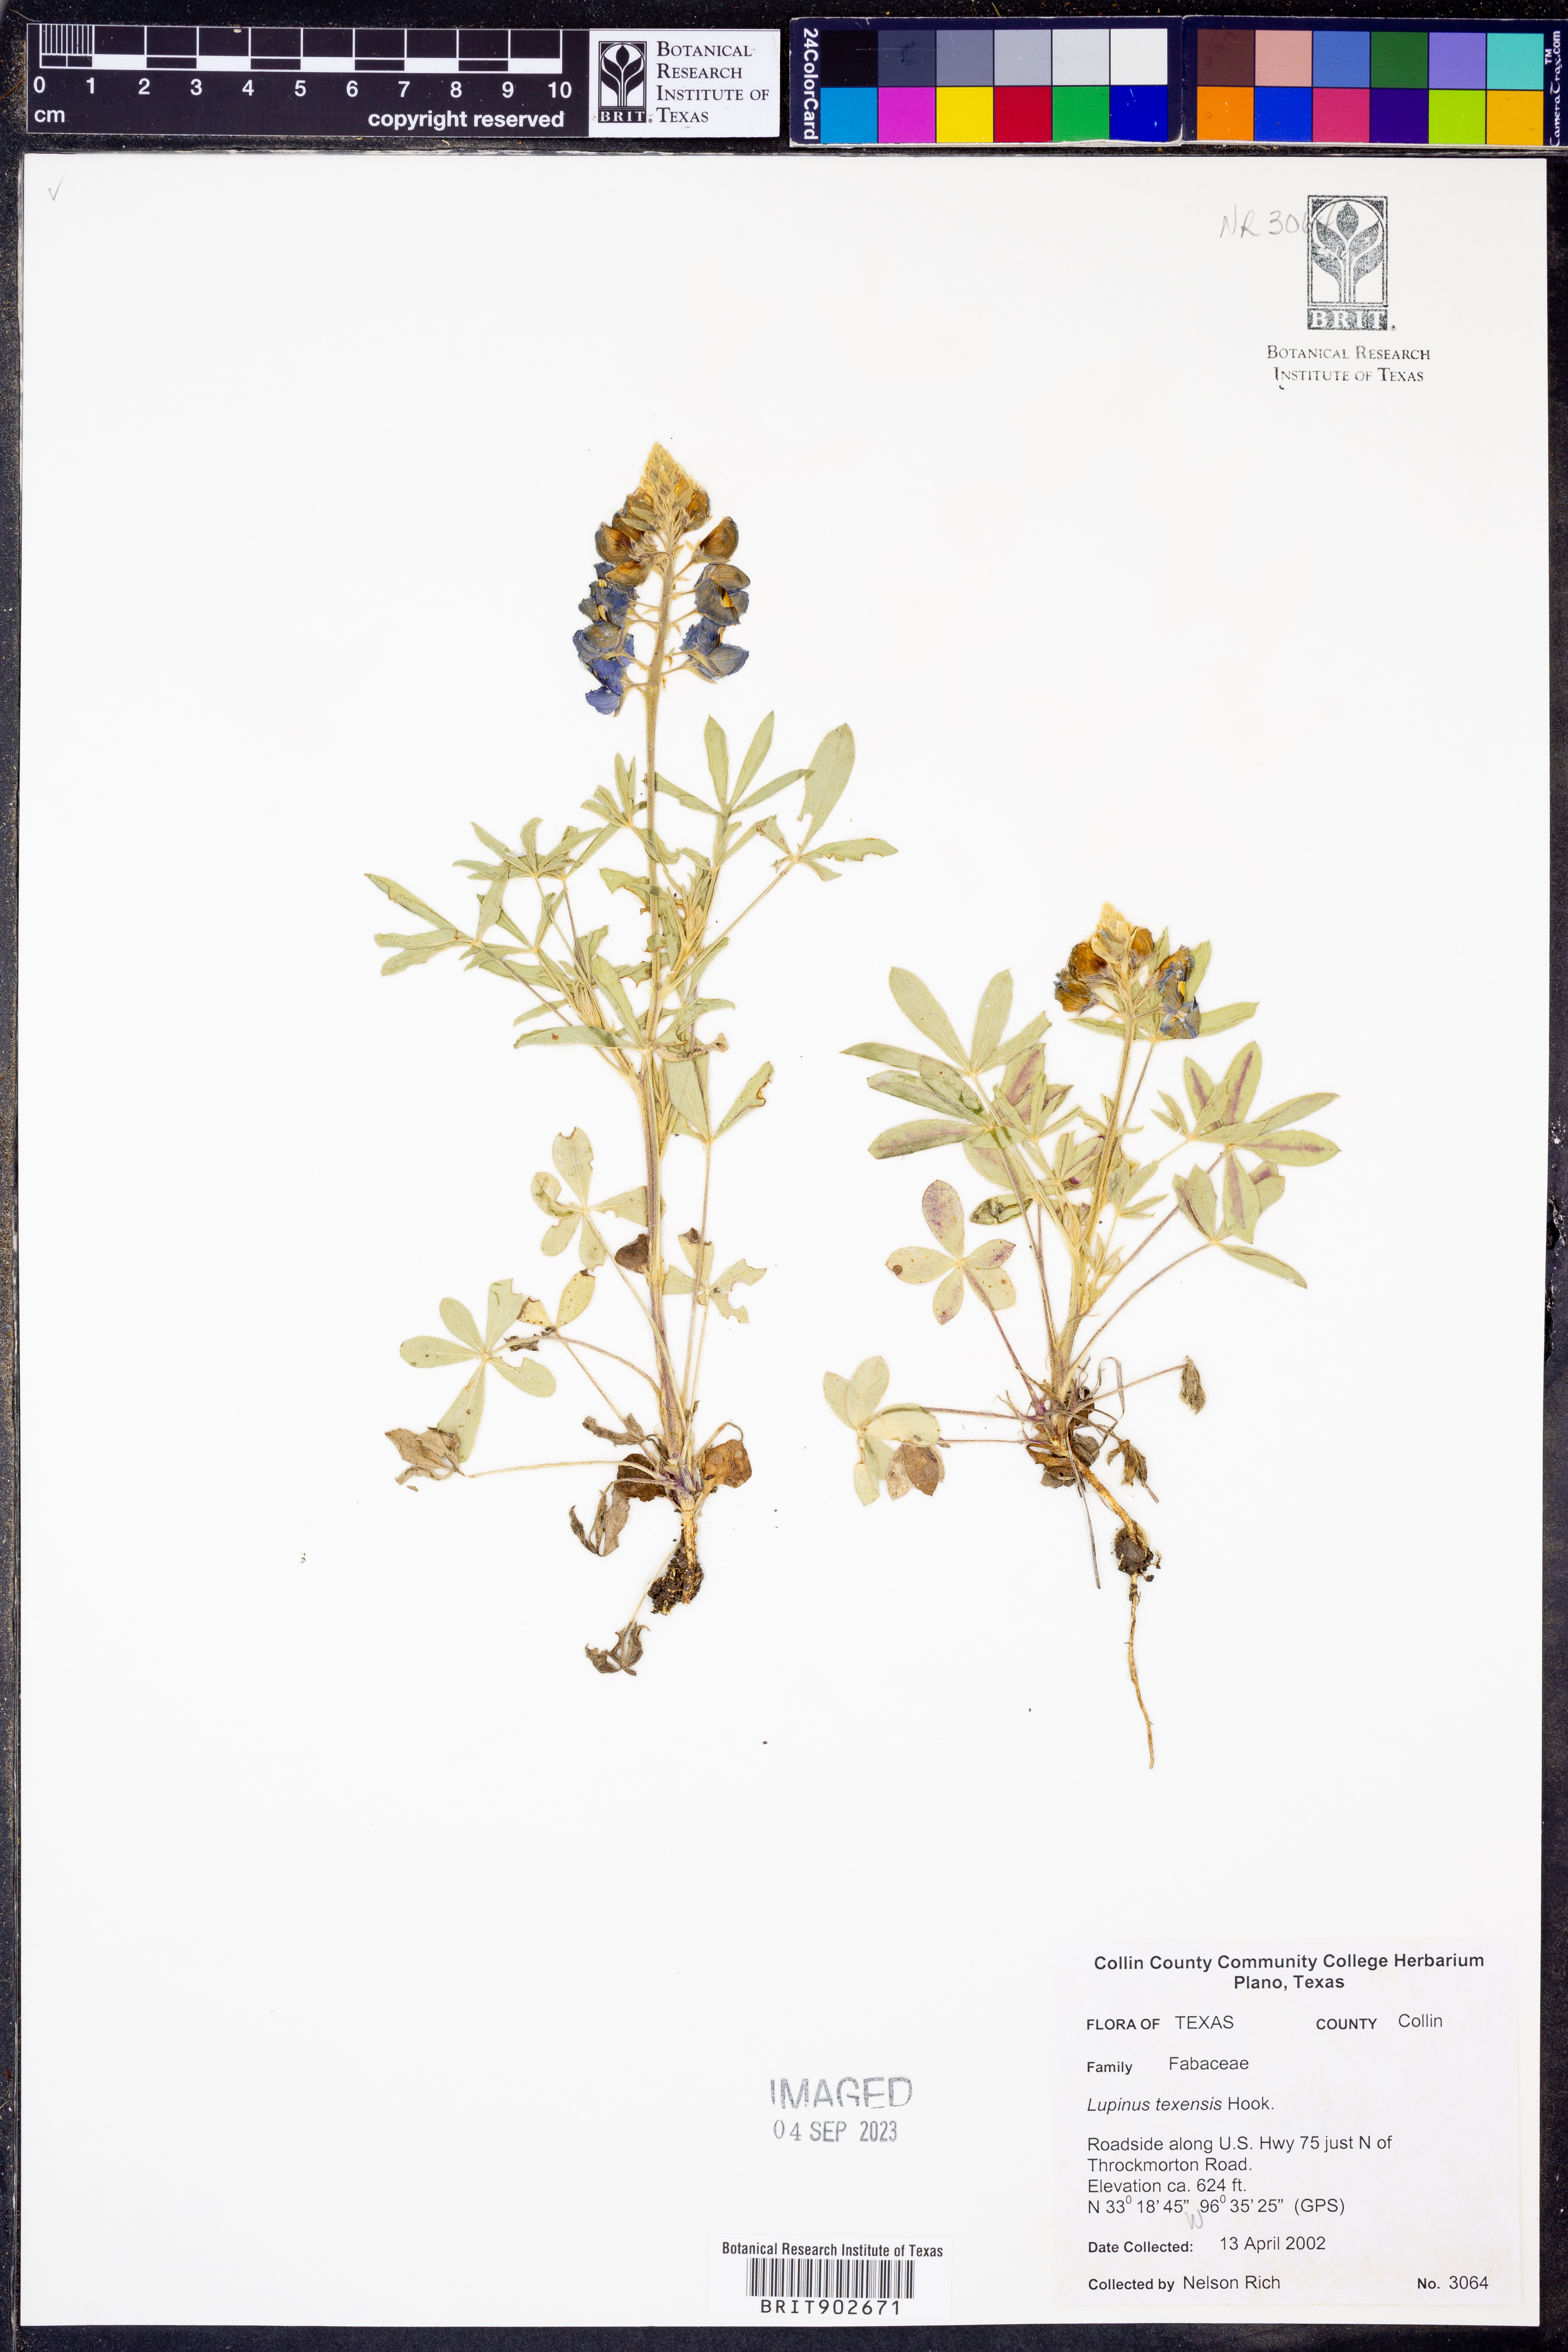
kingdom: Plantae
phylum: Tracheophyta
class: Magnoliopsida
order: Fabales
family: Fabaceae
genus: Lupinus
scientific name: Lupinus texensis
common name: Texas bluebonnet
